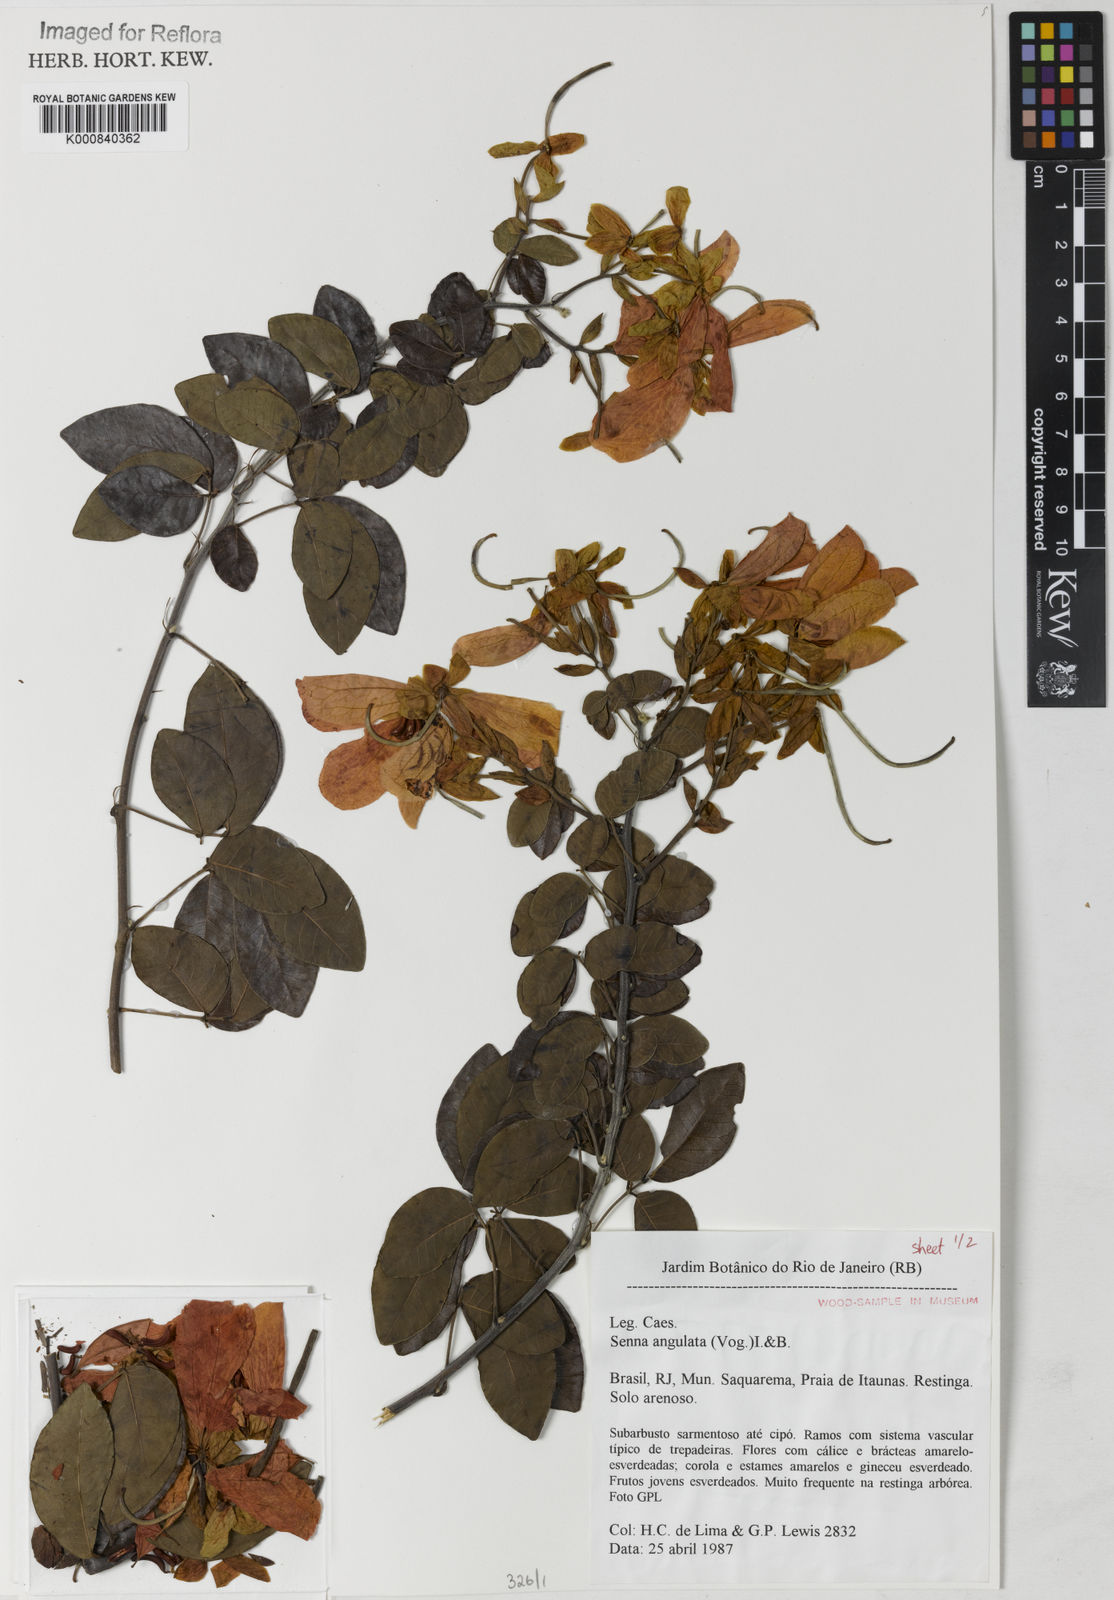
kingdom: Plantae
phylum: Tracheophyta
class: Magnoliopsida
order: Fabales
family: Fabaceae
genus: Senna
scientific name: Senna angulata
